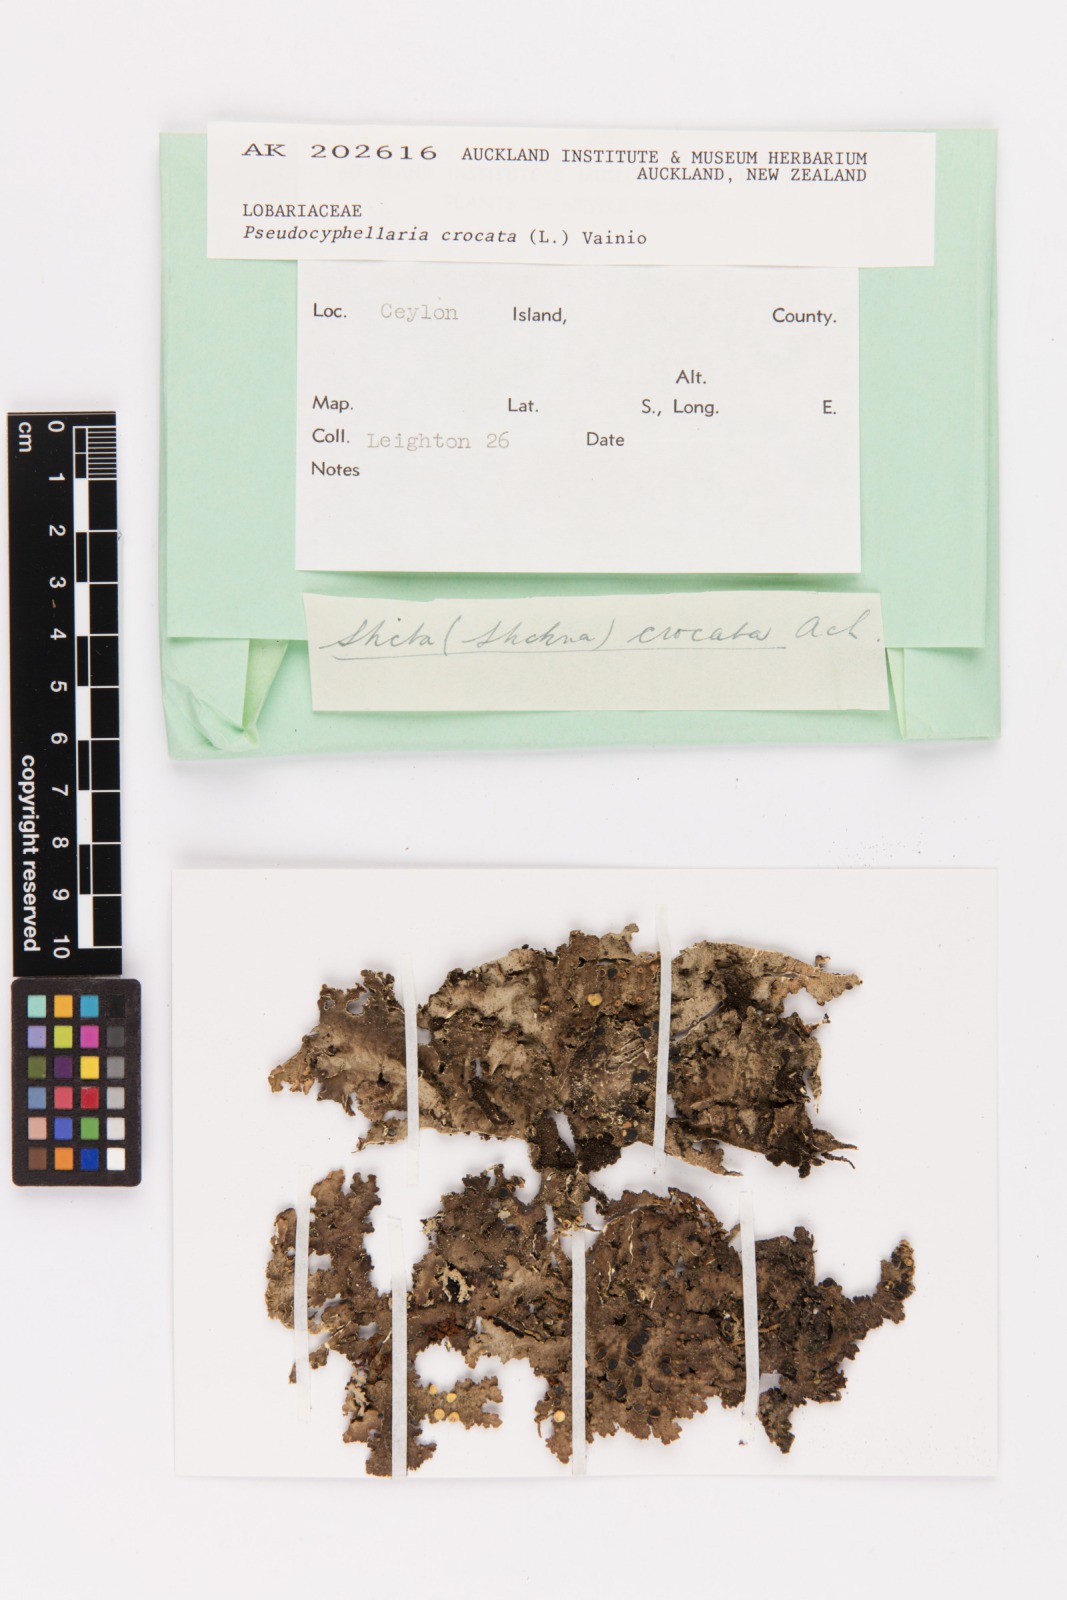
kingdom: Fungi
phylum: Ascomycota
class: Lecanoromycetes
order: Peltigerales
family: Lobariaceae
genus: Pseudocyphellaria
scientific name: Pseudocyphellaria crocata
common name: Golden specklebelly
